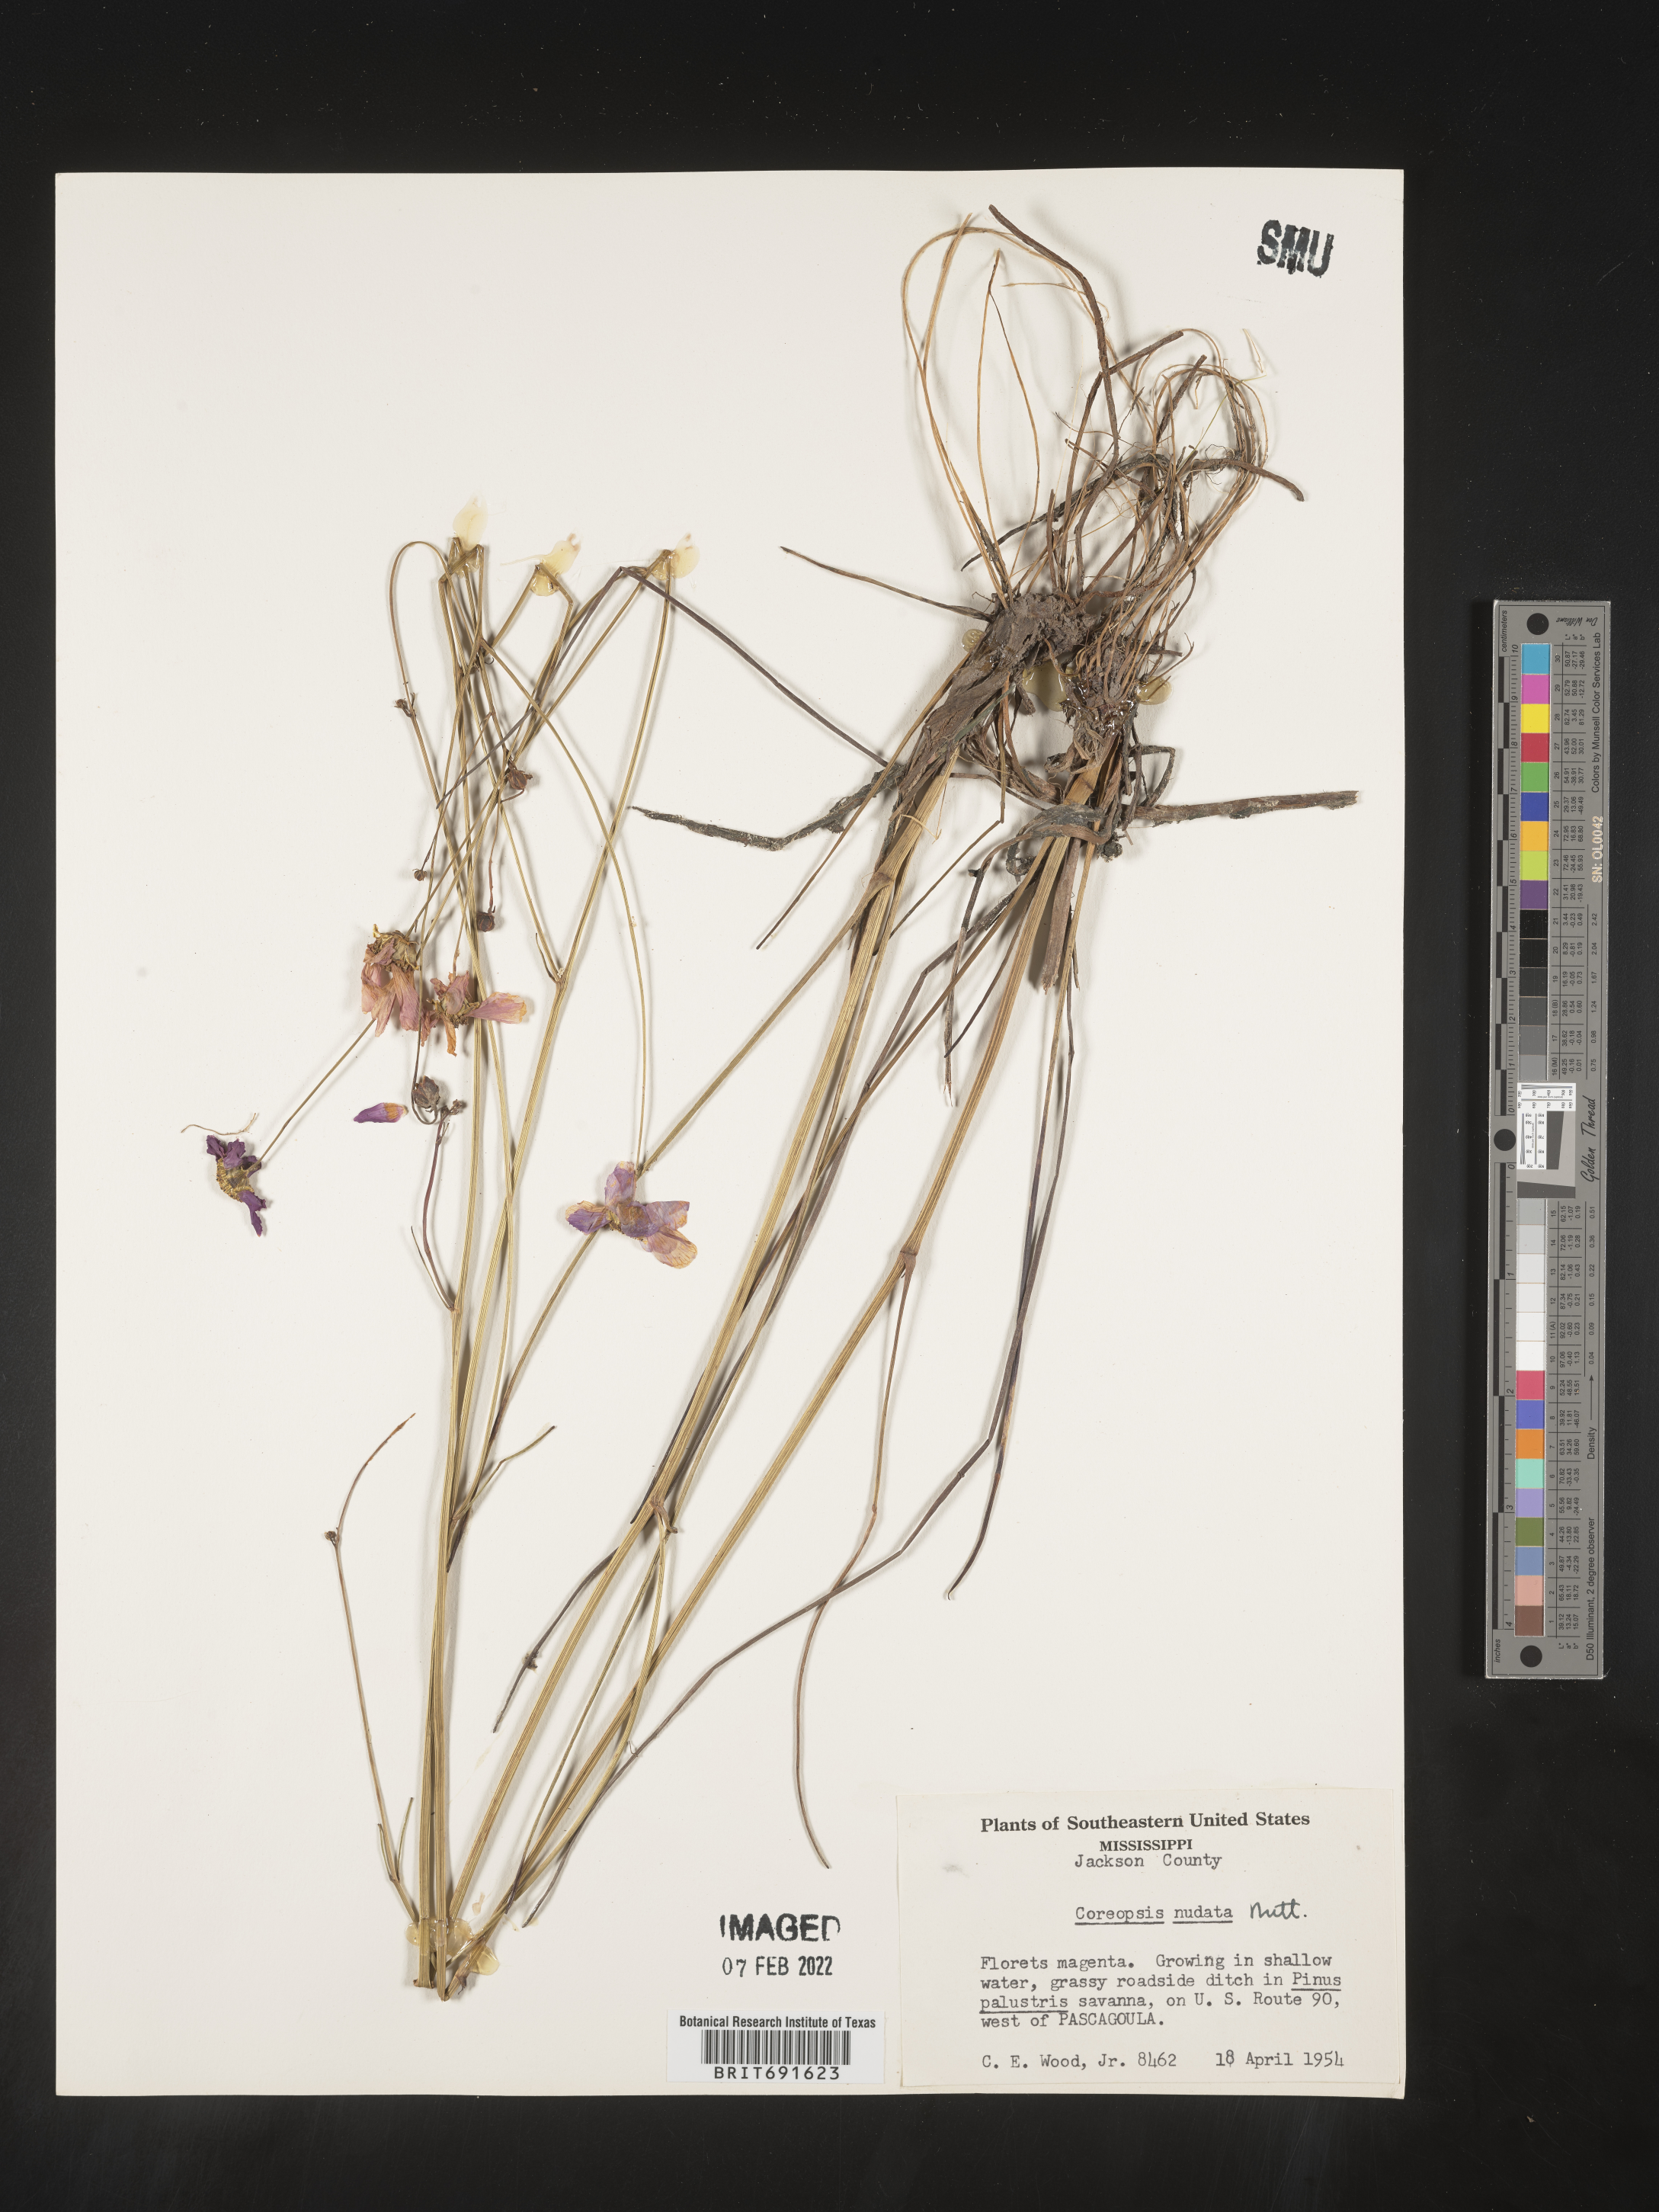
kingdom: Plantae
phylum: Tracheophyta
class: Magnoliopsida
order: Asterales
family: Asteraceae
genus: Coreopsis
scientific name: Coreopsis nudata
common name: Purple tickseed
